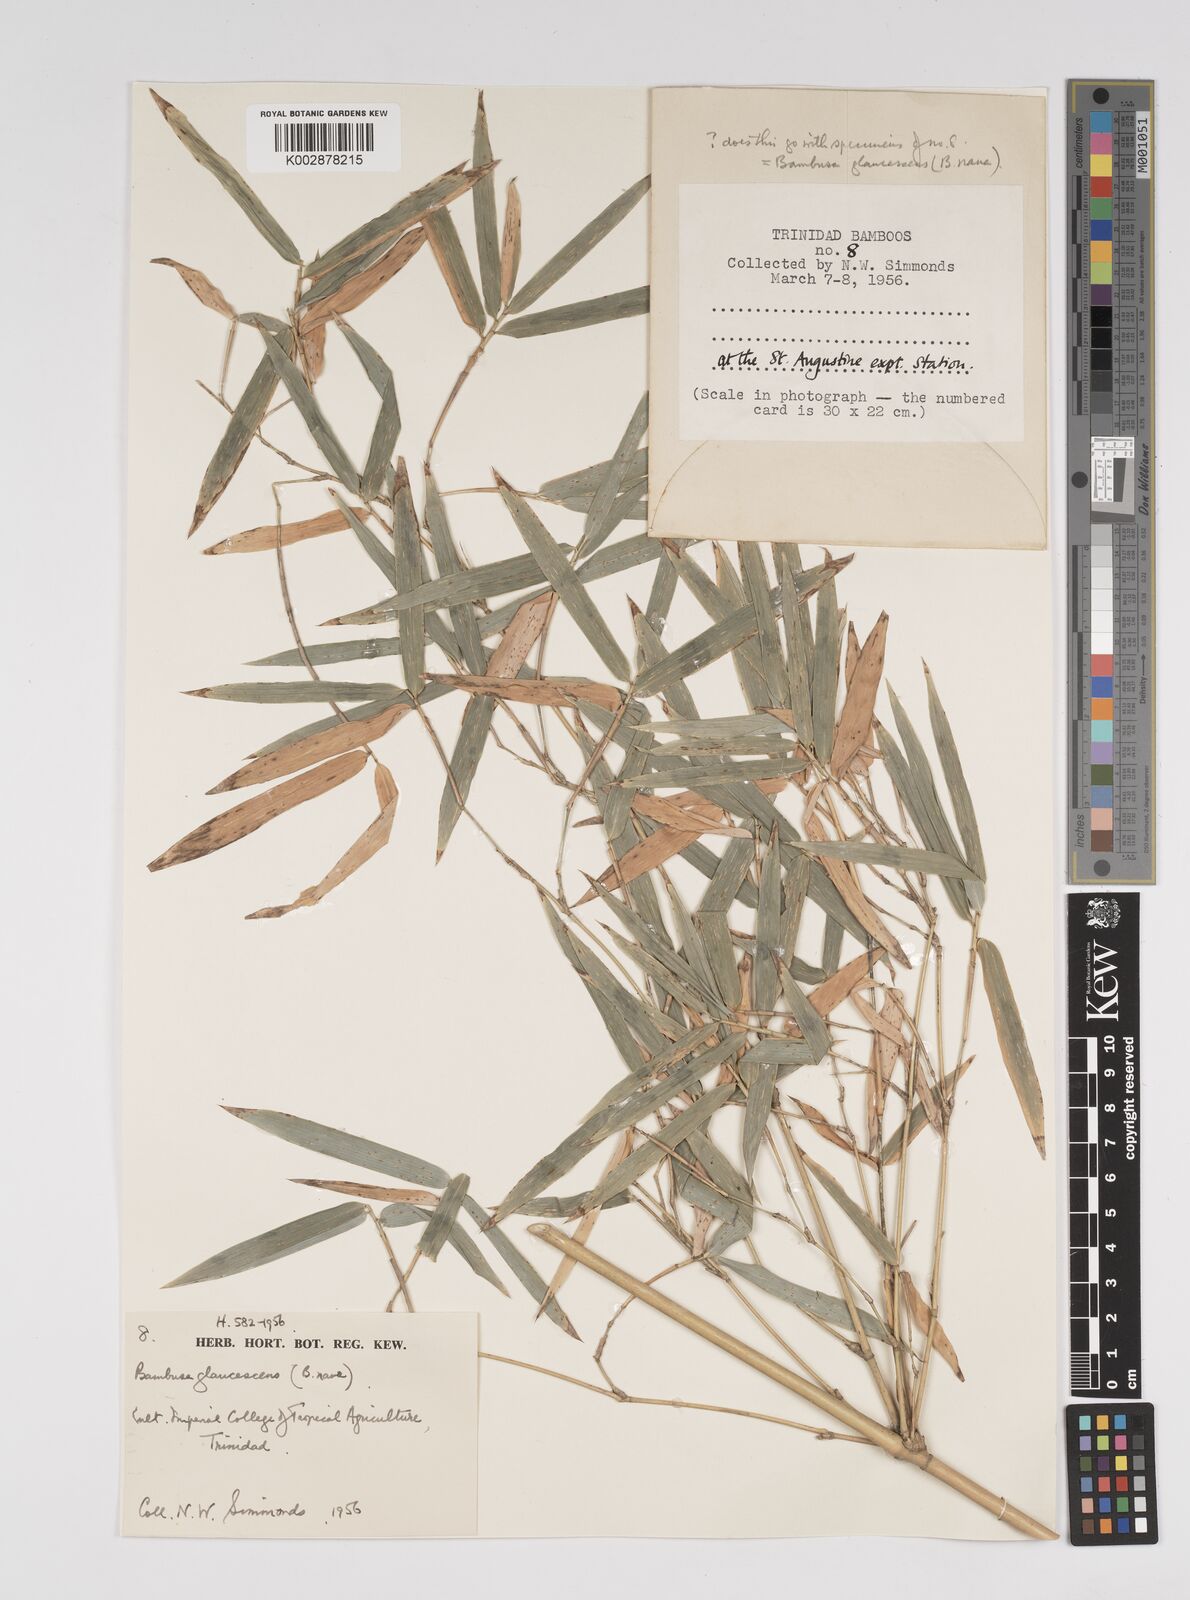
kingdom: Plantae
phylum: Tracheophyta
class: Liliopsida
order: Poales
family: Poaceae
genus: Bambusa
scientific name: Bambusa multiplex
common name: Hedge bamboo
